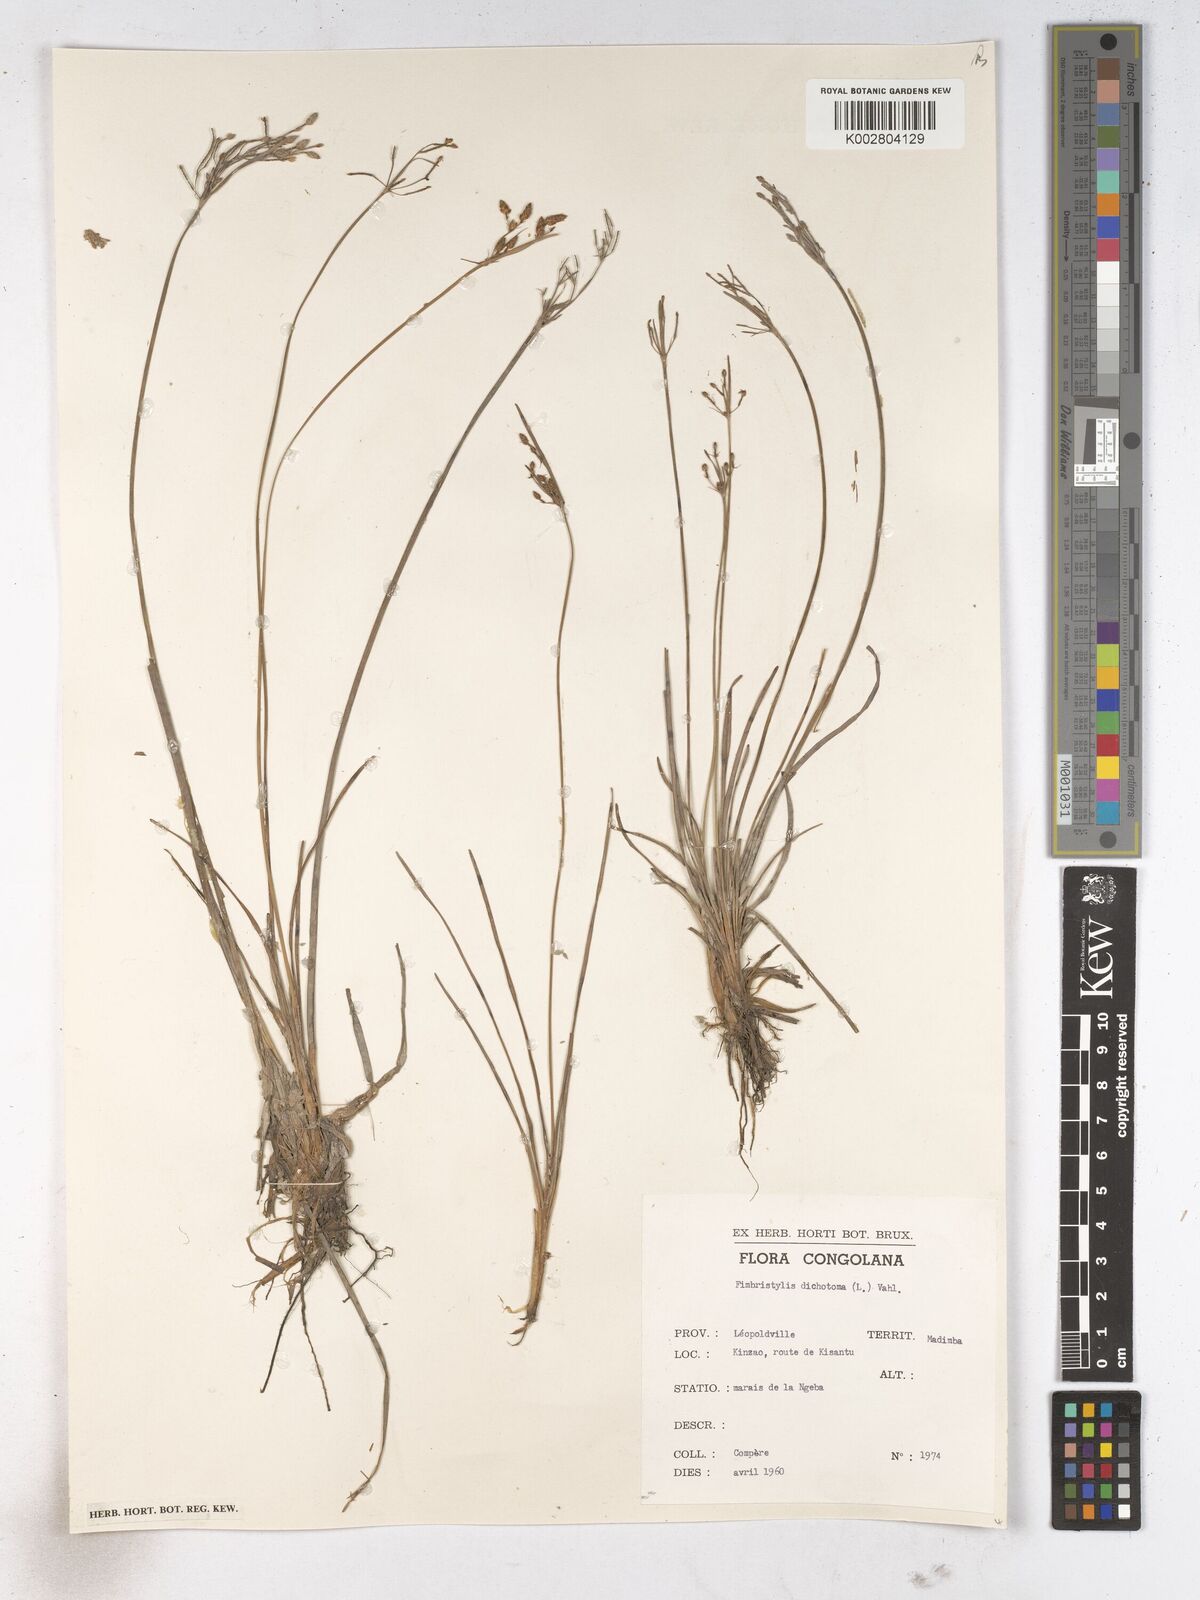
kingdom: Plantae
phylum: Tracheophyta
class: Liliopsida
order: Poales
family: Cyperaceae
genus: Fimbristylis
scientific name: Fimbristylis dichotoma
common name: Forked fimbry
